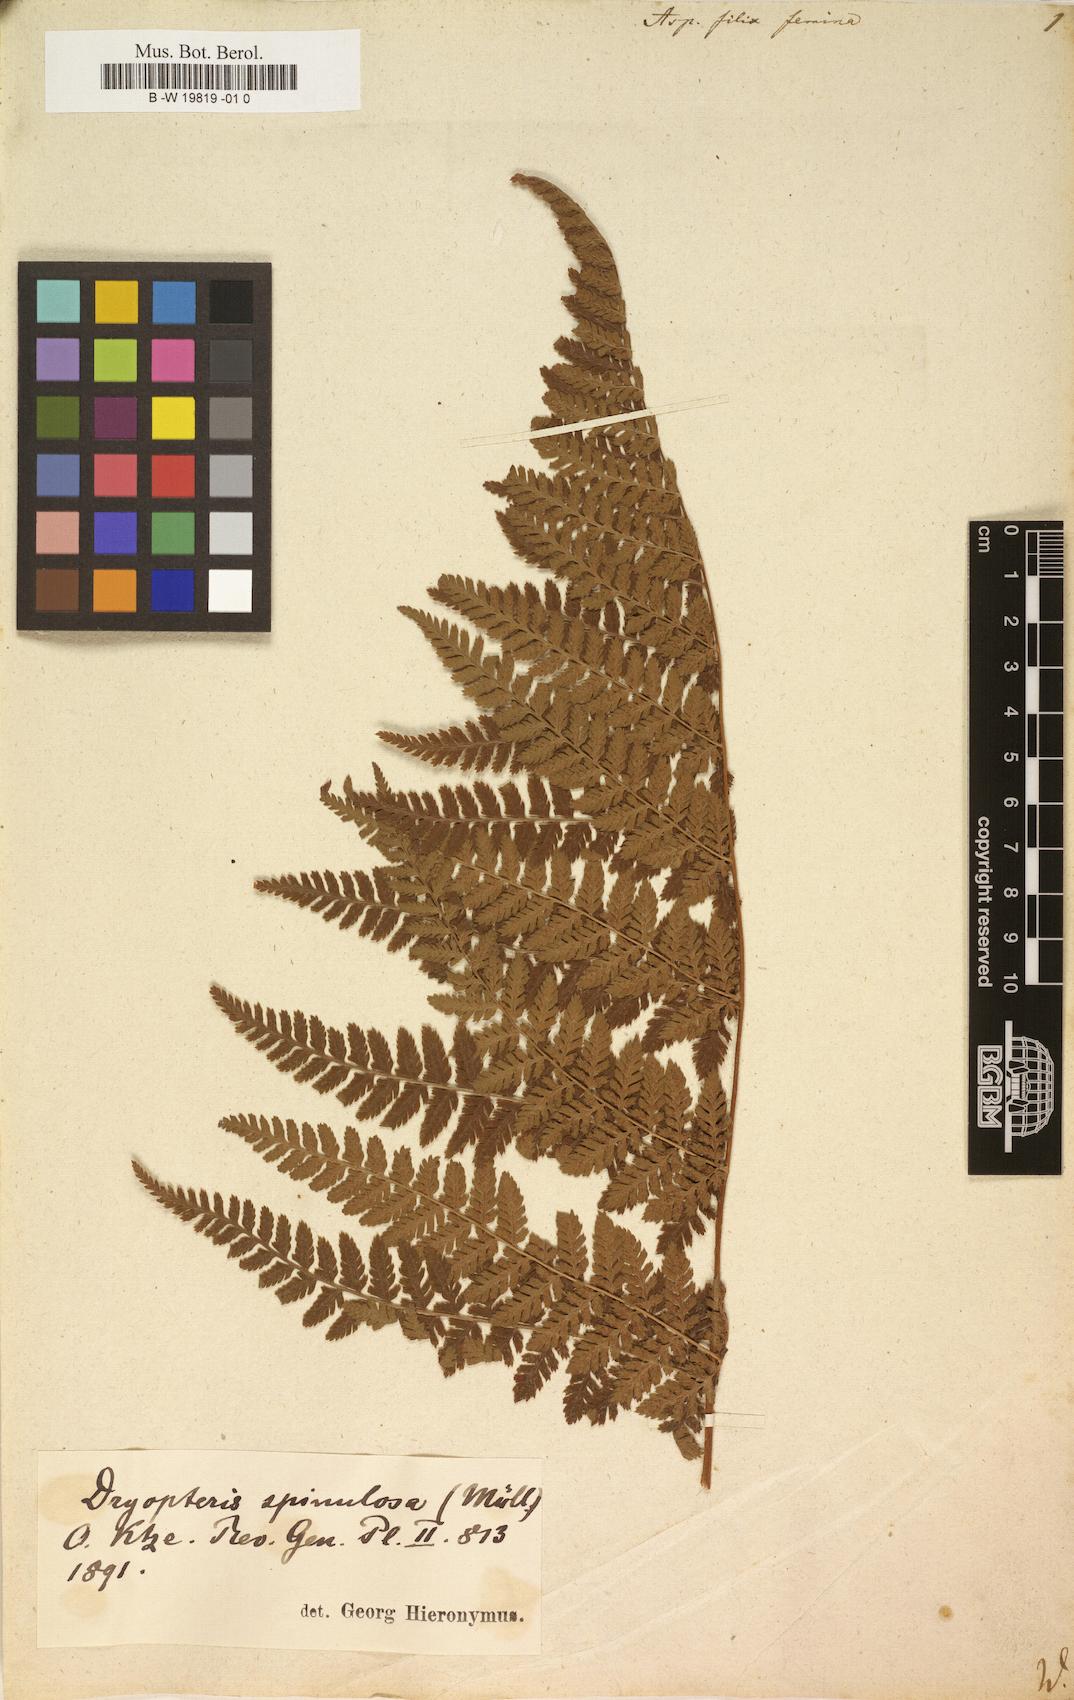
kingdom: Plantae
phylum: Tracheophyta
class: Polypodiopsida
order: Polypodiales
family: Athyriaceae
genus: Athyrium
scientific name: Athyrium filix-femina
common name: Lady fern
